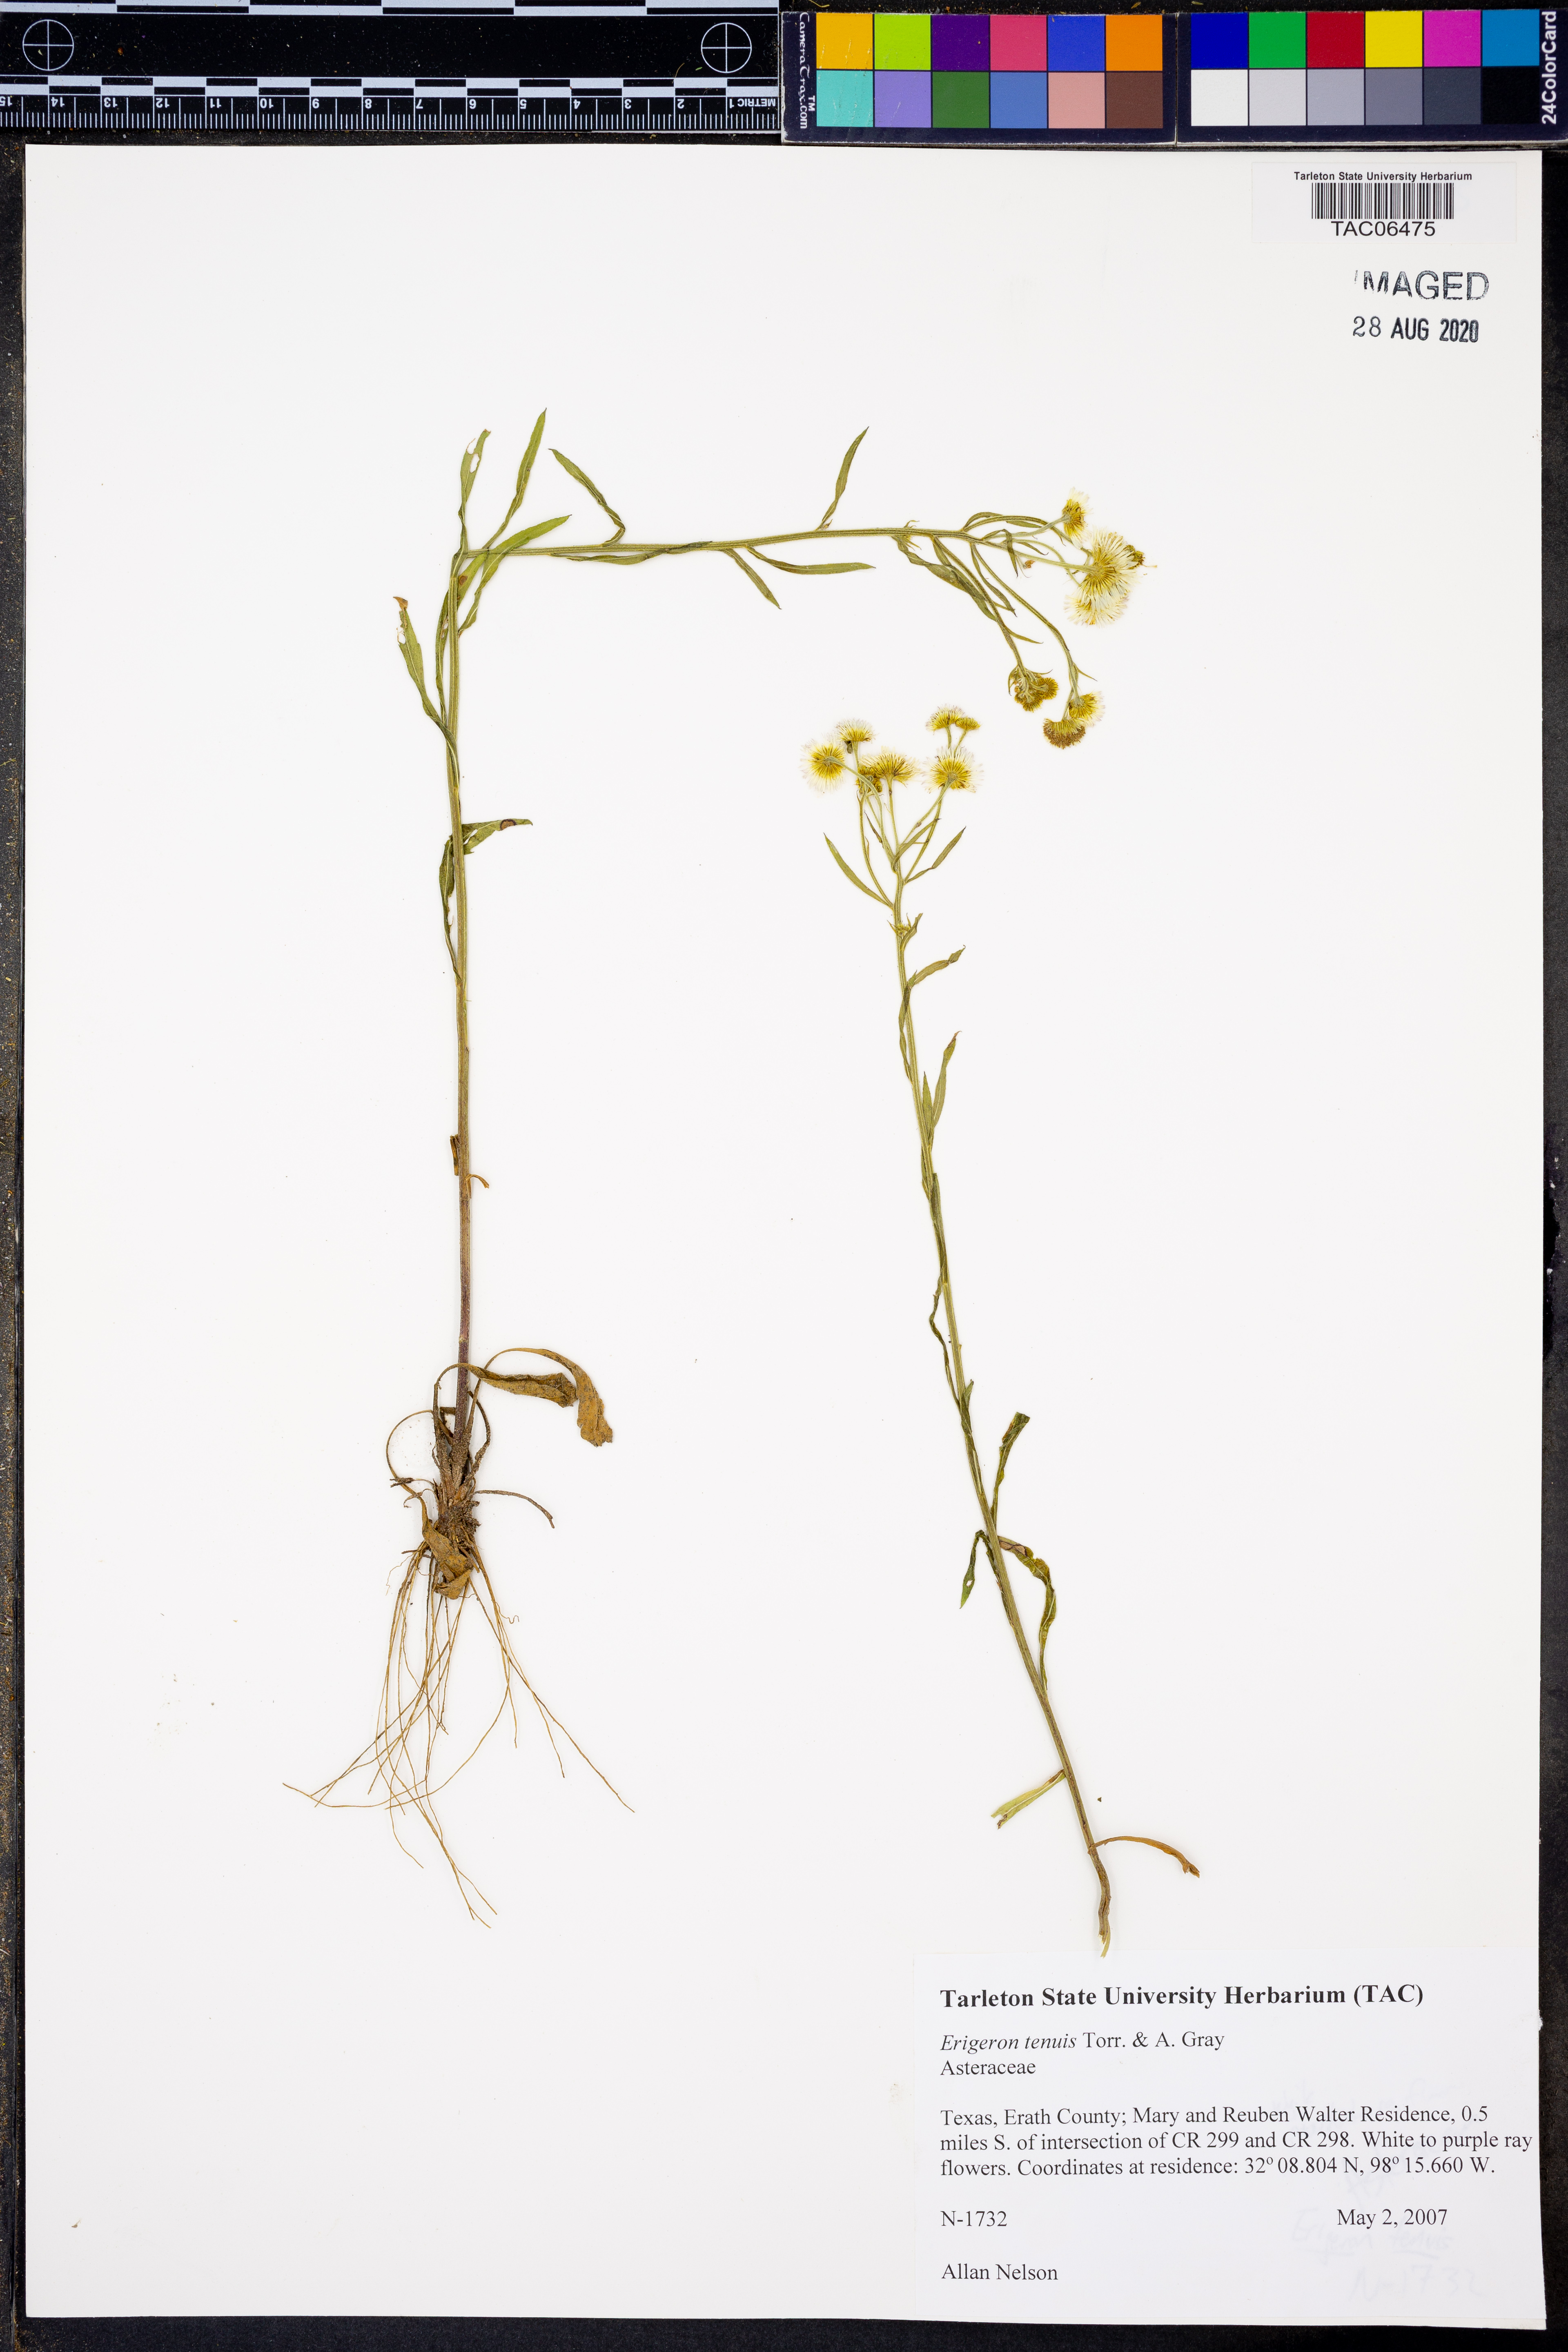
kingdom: Plantae
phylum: Tracheophyta
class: Magnoliopsida
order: Asterales
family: Asteraceae
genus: Erigeron
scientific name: Erigeron tenuis
